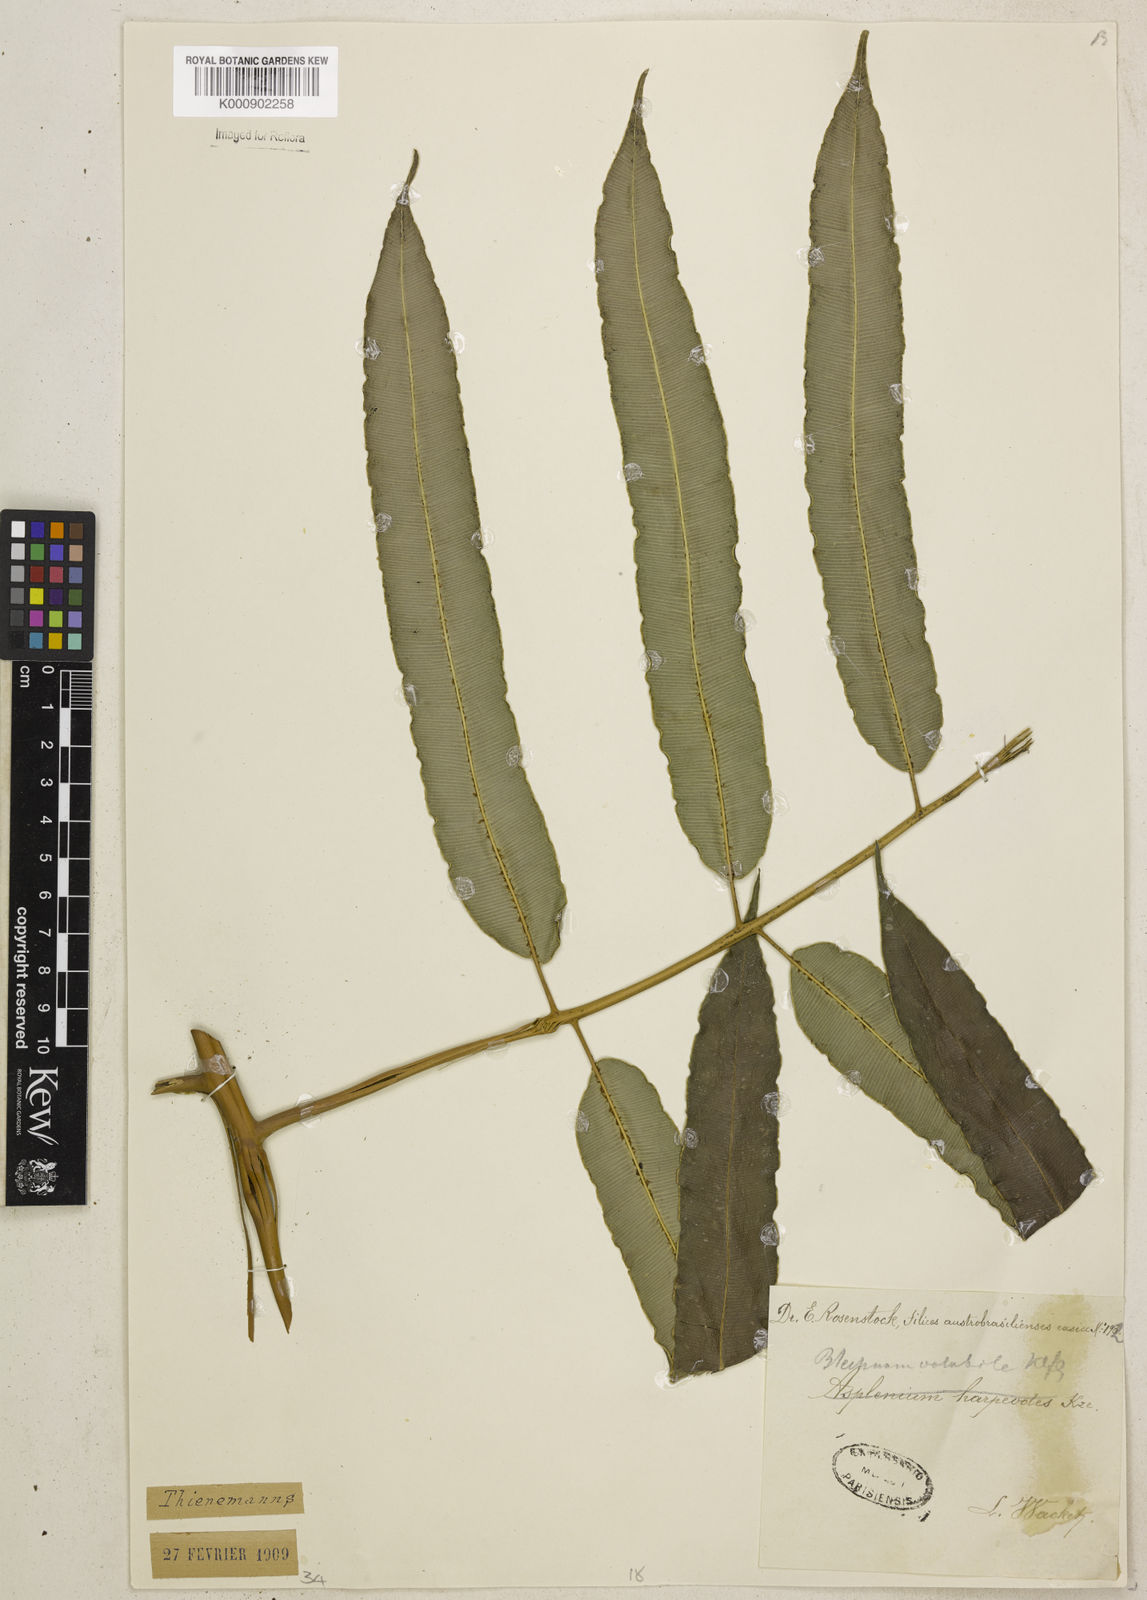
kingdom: Plantae
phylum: Tracheophyta
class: Polypodiopsida
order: Polypodiales
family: Blechnaceae
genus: Salpichlaena
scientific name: Salpichlaena volubilis
